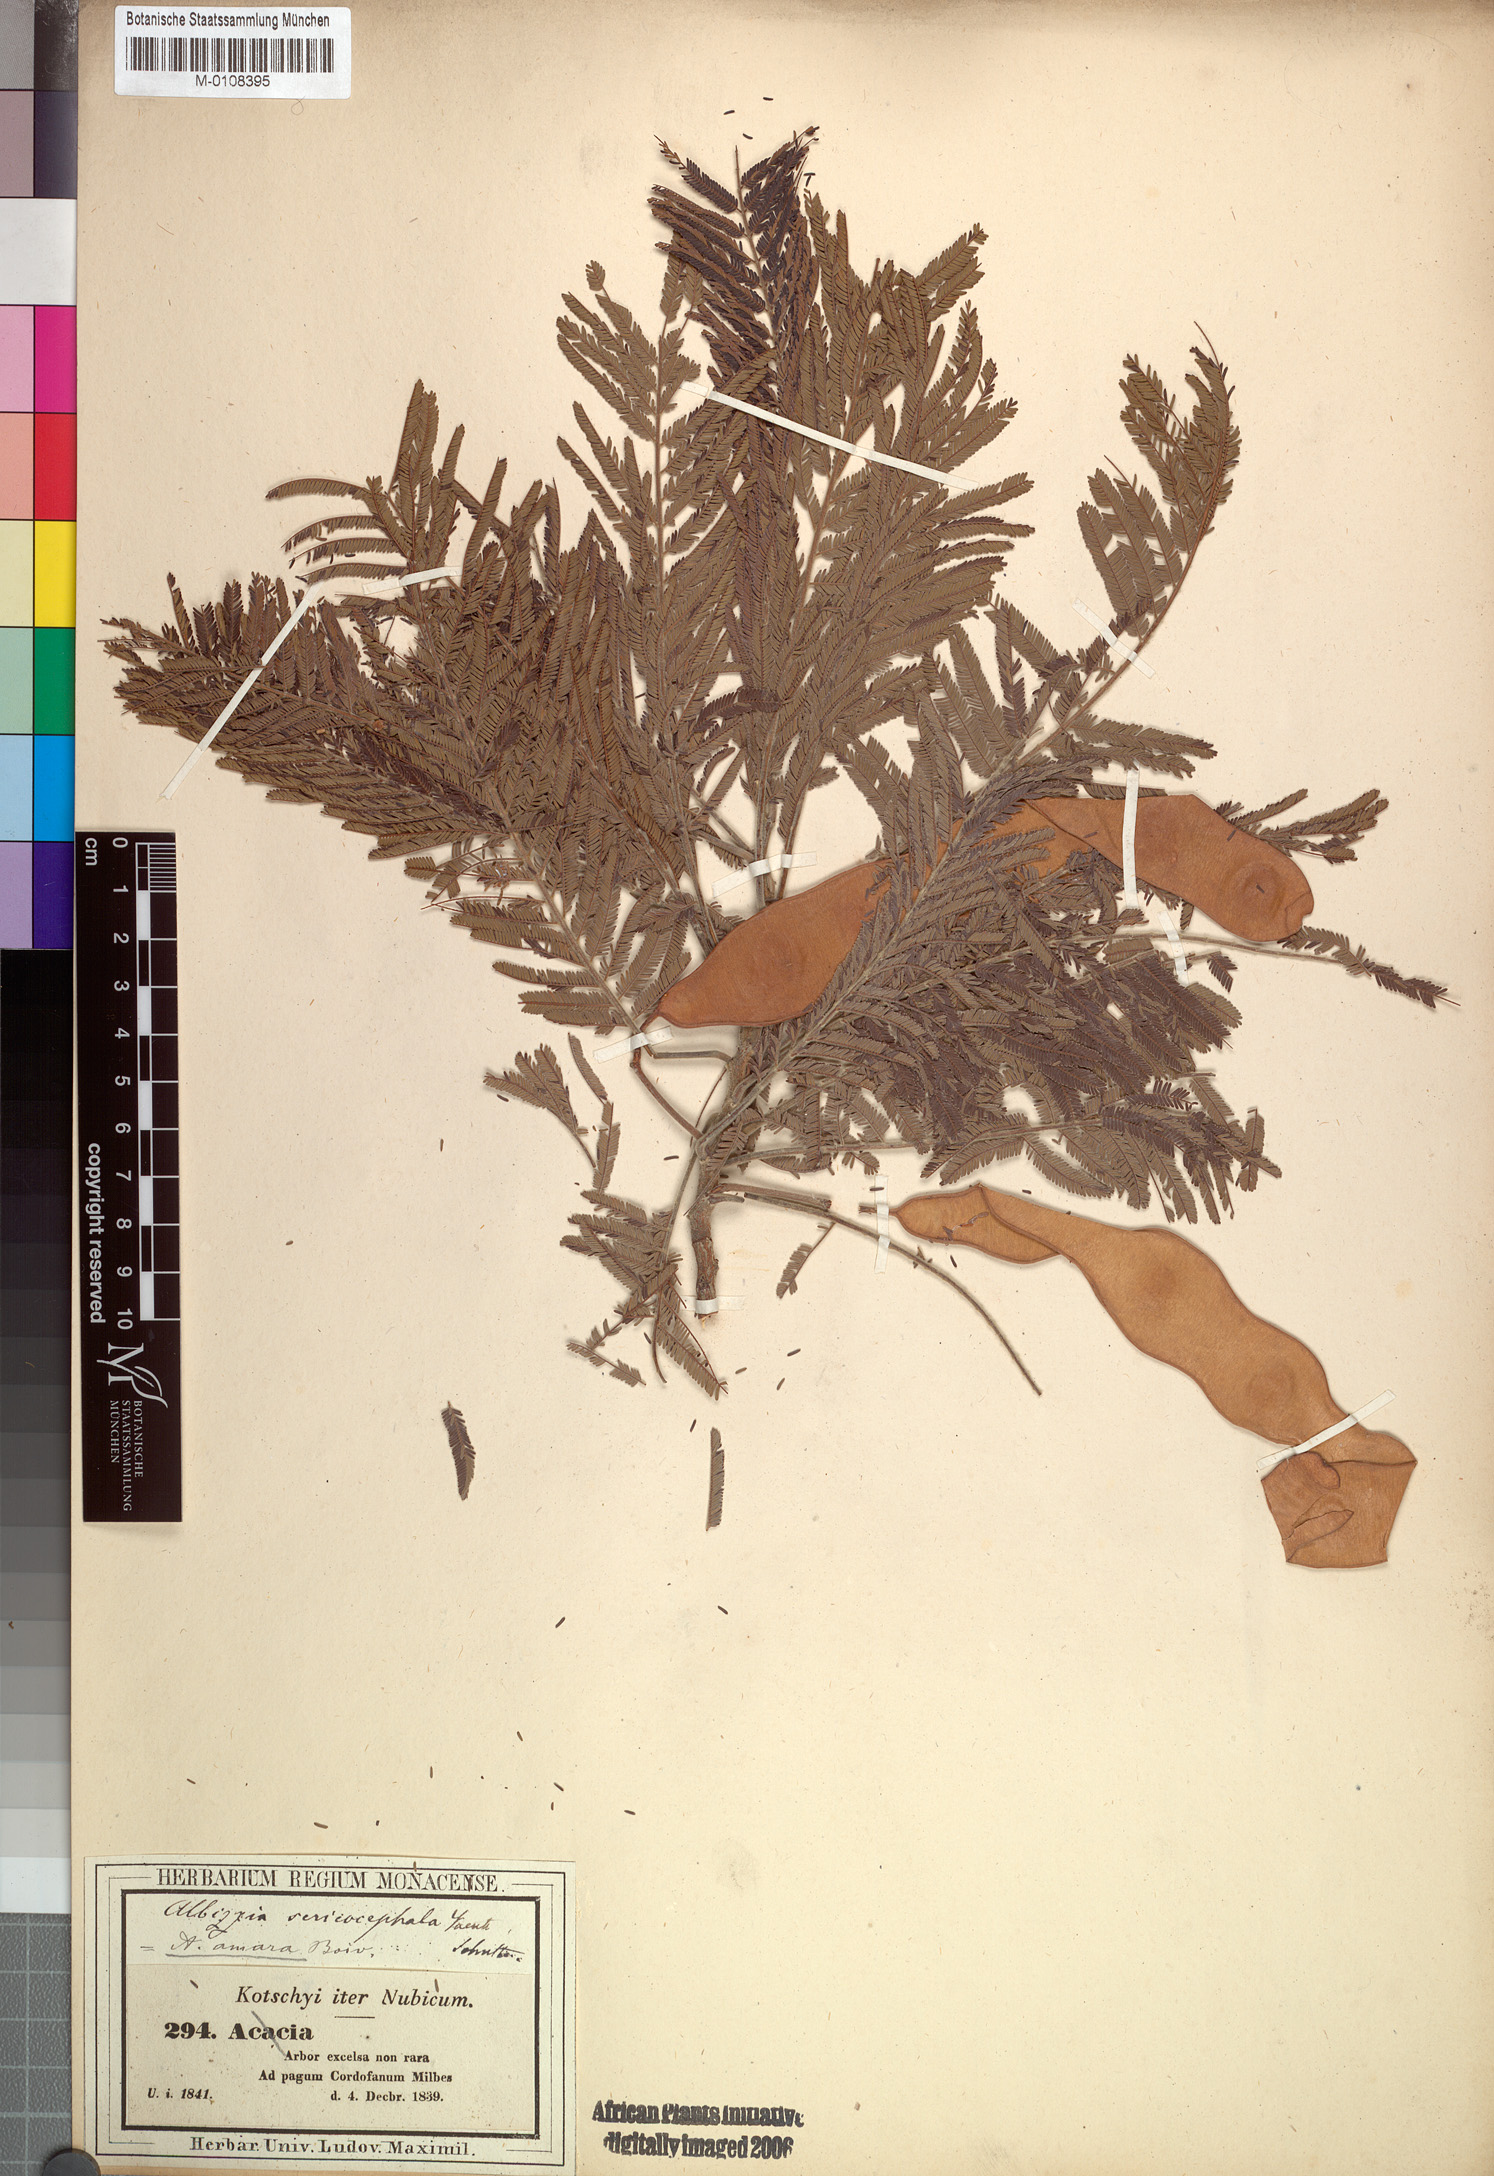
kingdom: Plantae
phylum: Tracheophyta
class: Magnoliopsida
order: Fabales
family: Fabaceae
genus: Albizia
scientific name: Albizia amara
